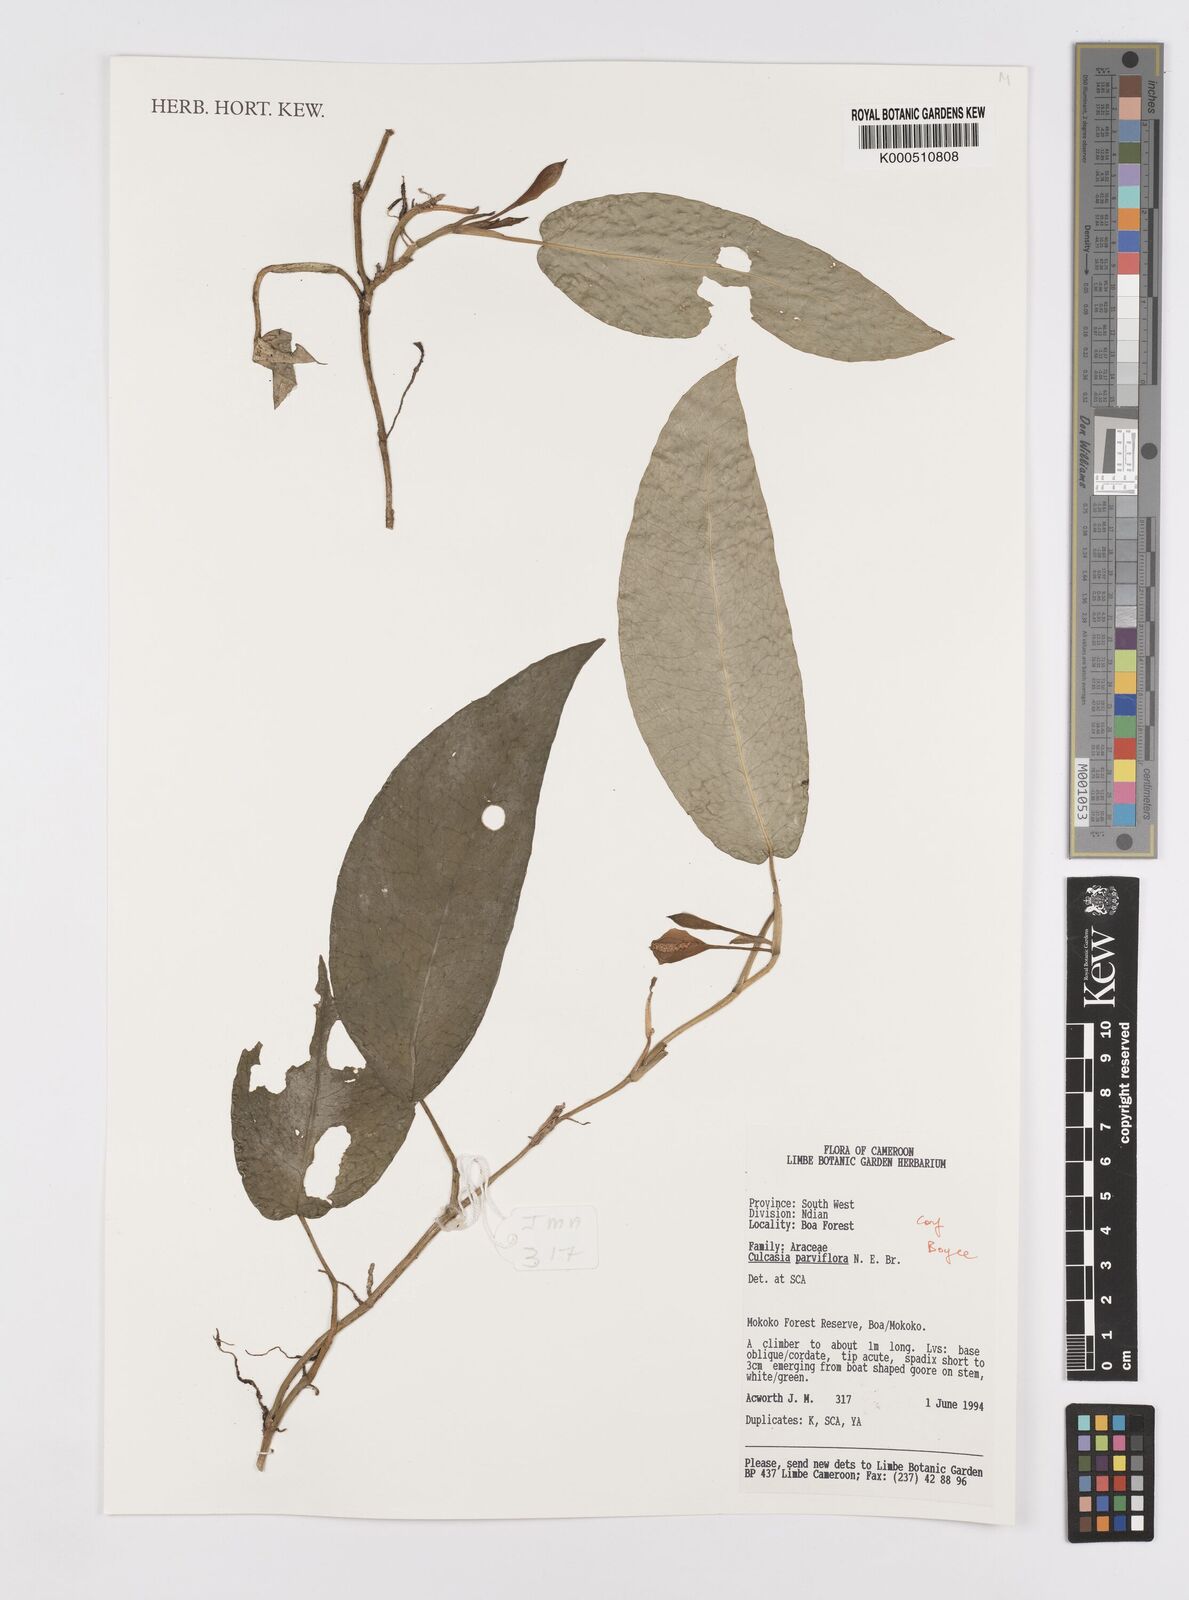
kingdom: Plantae
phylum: Tracheophyta
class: Liliopsida
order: Alismatales
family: Araceae
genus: Culcasia
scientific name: Culcasia parviflora
